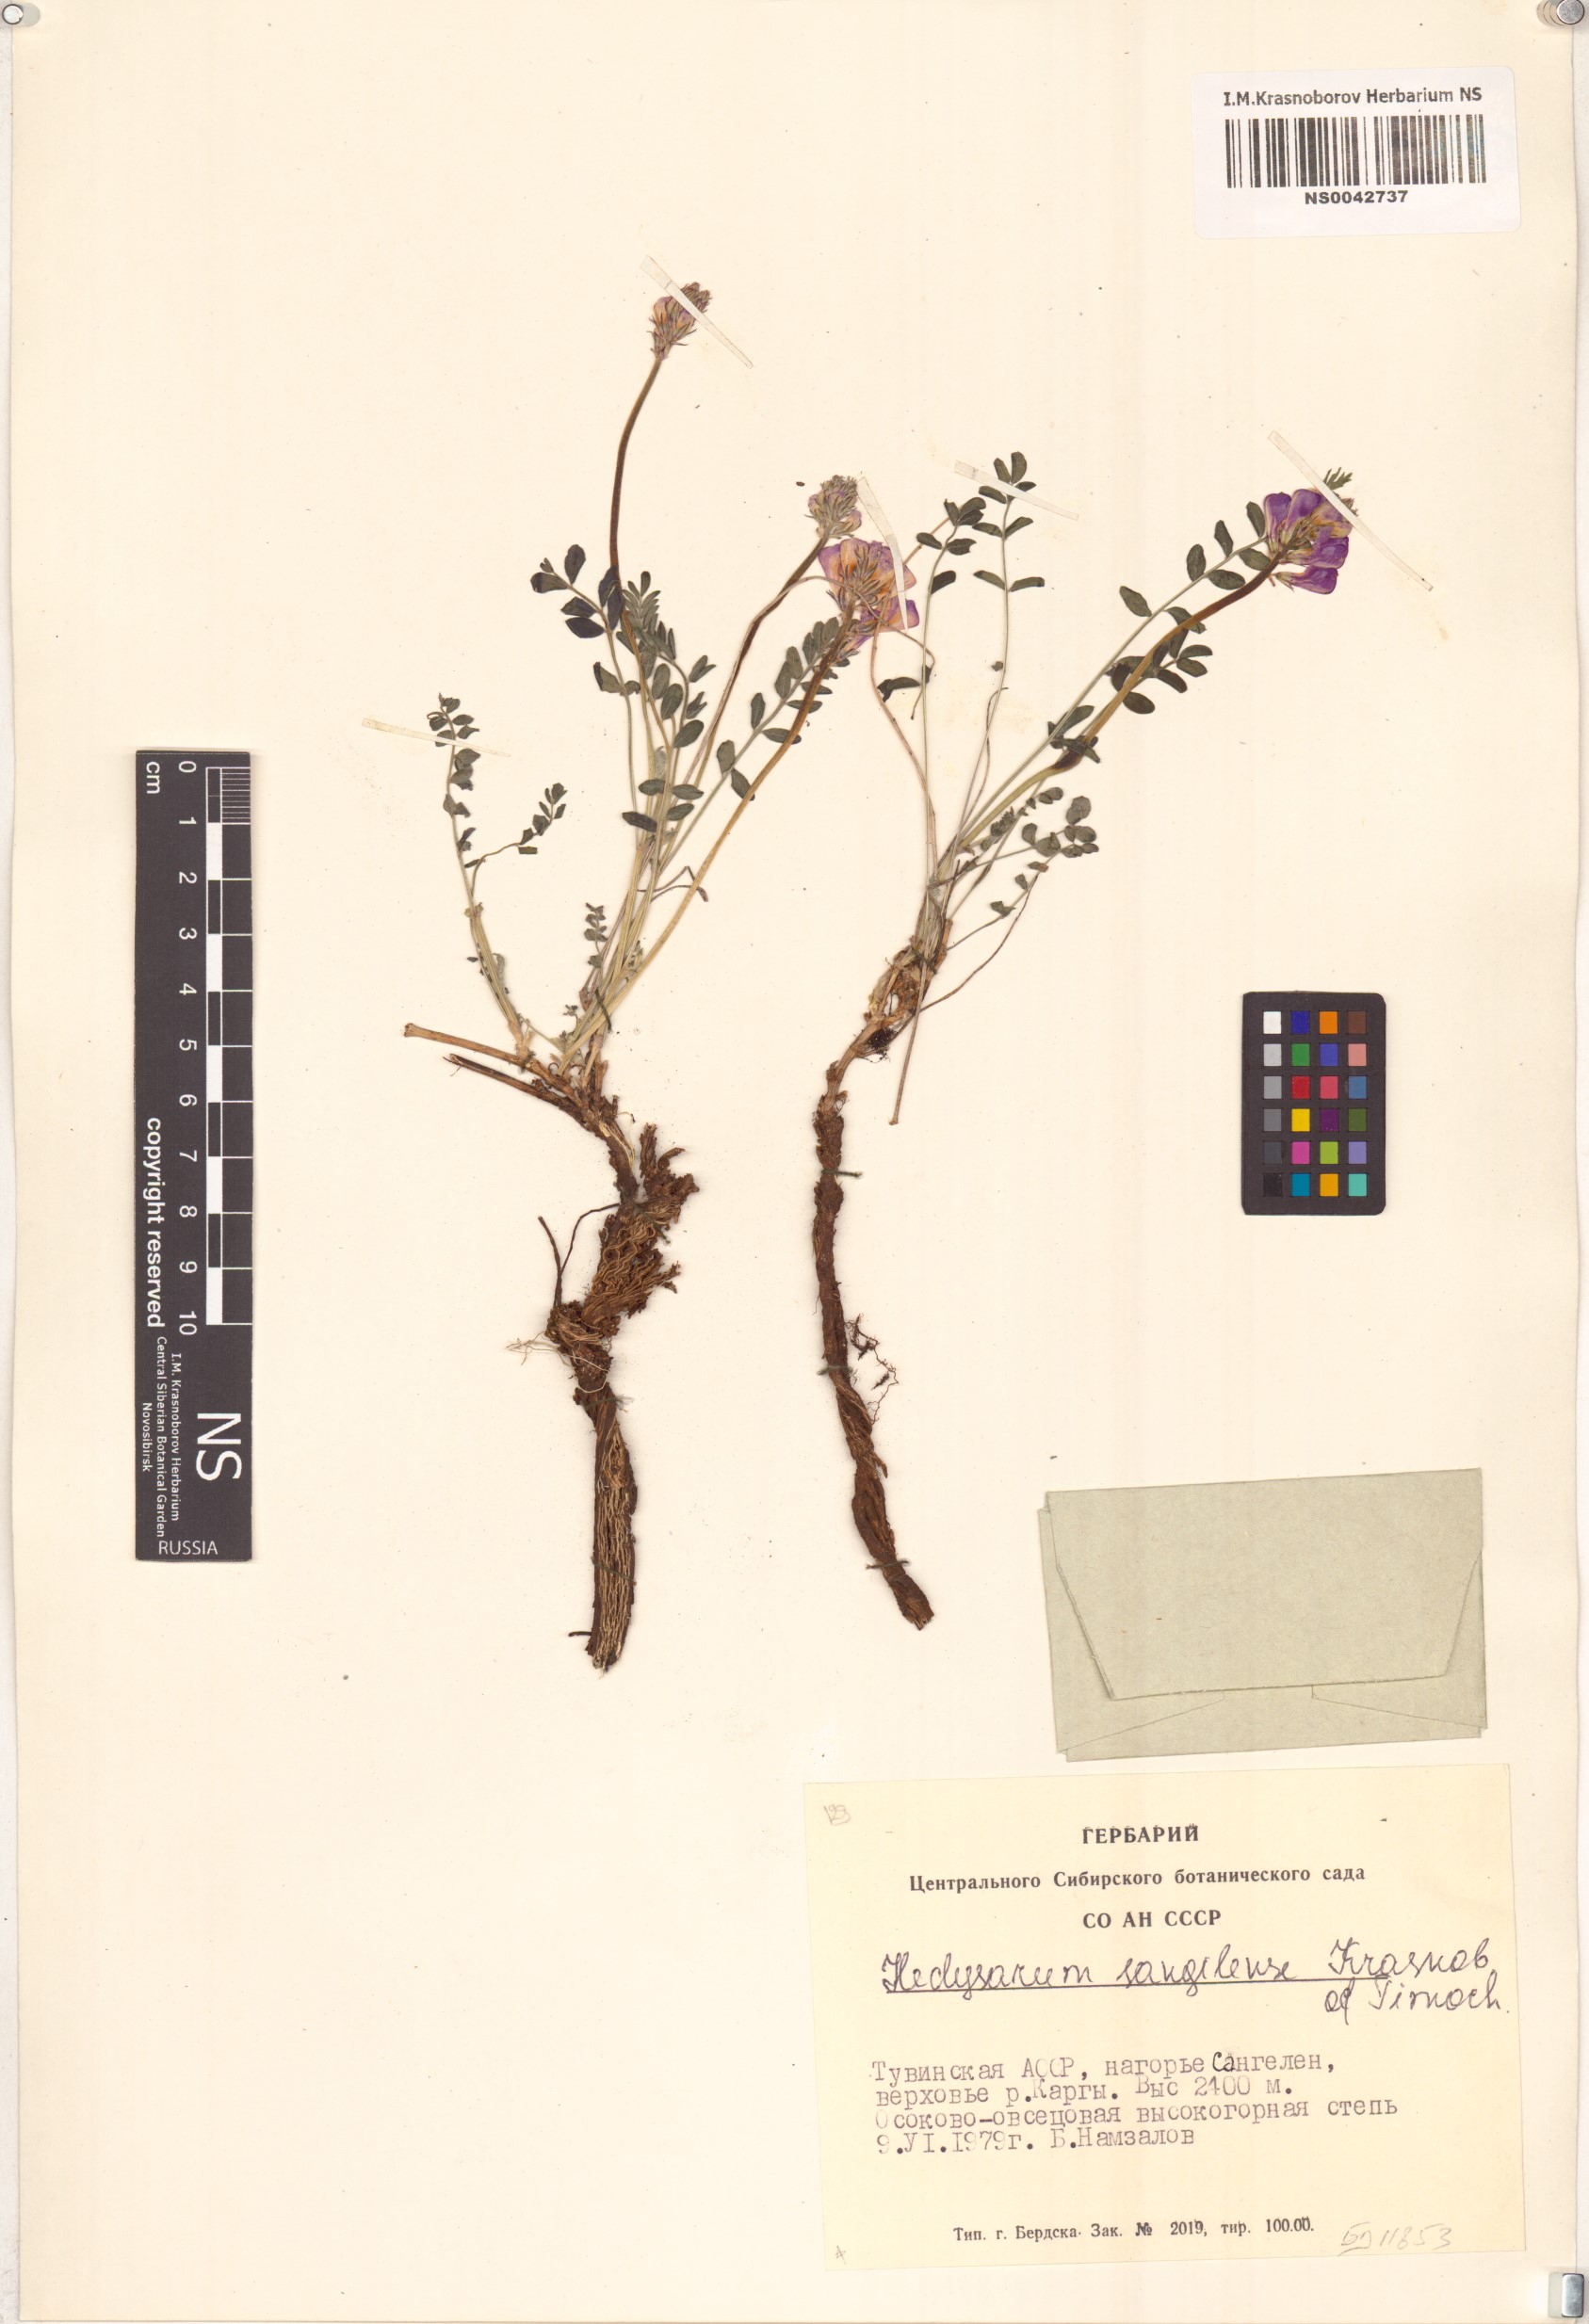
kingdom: Plantae
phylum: Tracheophyta
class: Magnoliopsida
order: Fabales
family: Fabaceae
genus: Hedysarum
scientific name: Hedysarum sangilense
